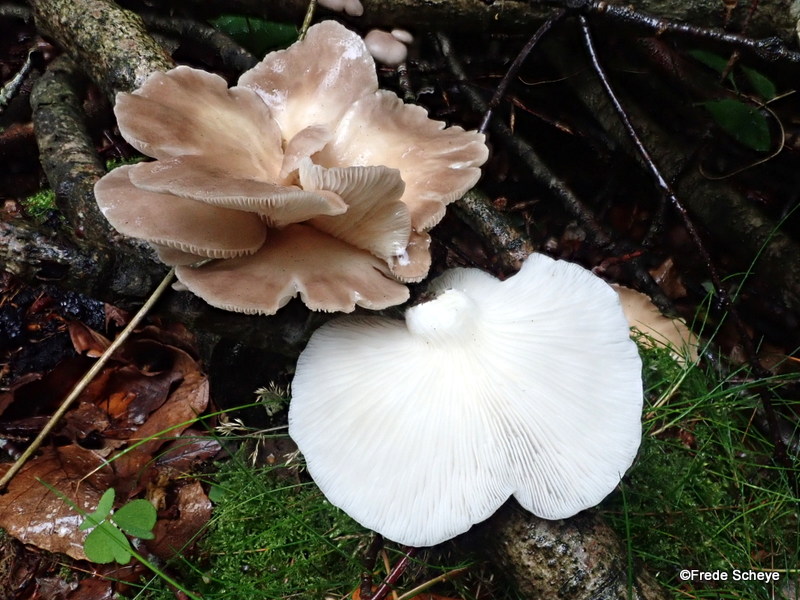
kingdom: Fungi
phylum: Basidiomycota
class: Agaricomycetes
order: Agaricales
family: Pleurotaceae
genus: Pleurotus
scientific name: Pleurotus pulmonarius
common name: sommer-østershat
